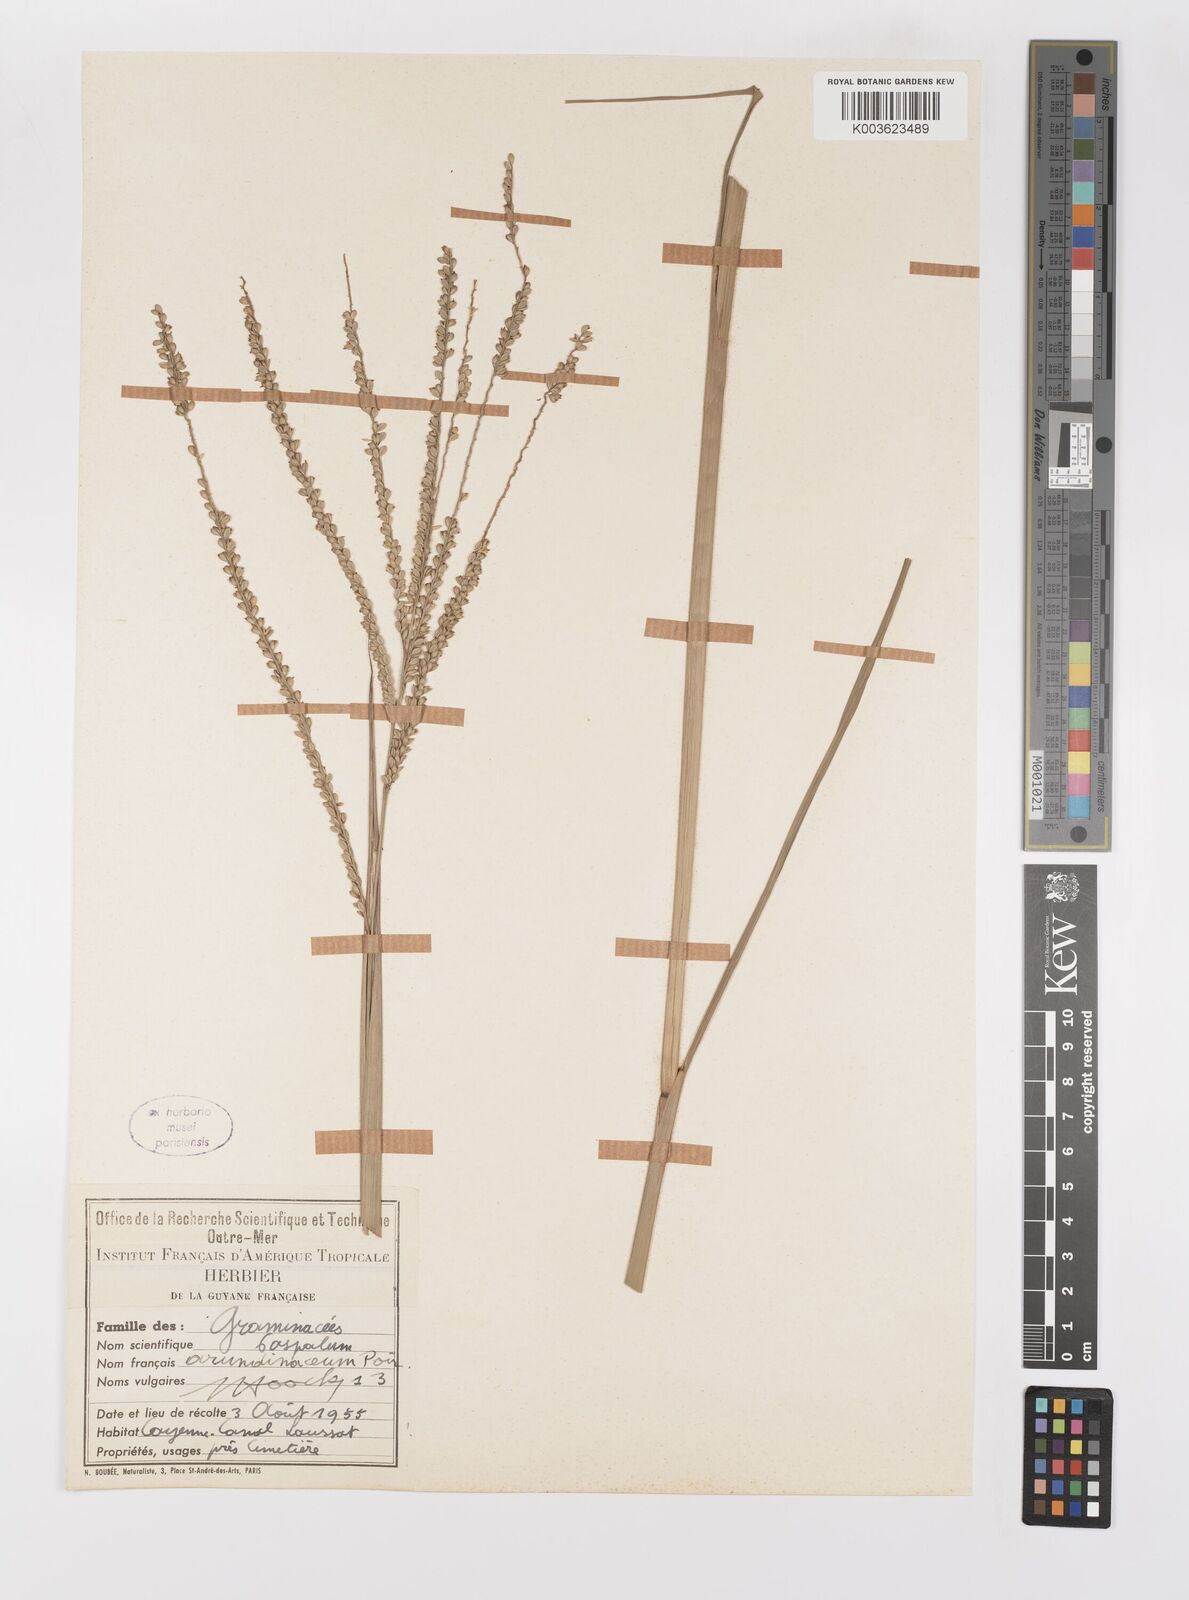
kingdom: Plantae
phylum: Tracheophyta
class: Liliopsida
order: Poales
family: Poaceae
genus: Paspalum
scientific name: Paspalum arundinaceum
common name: Thick ditch crowngrass
